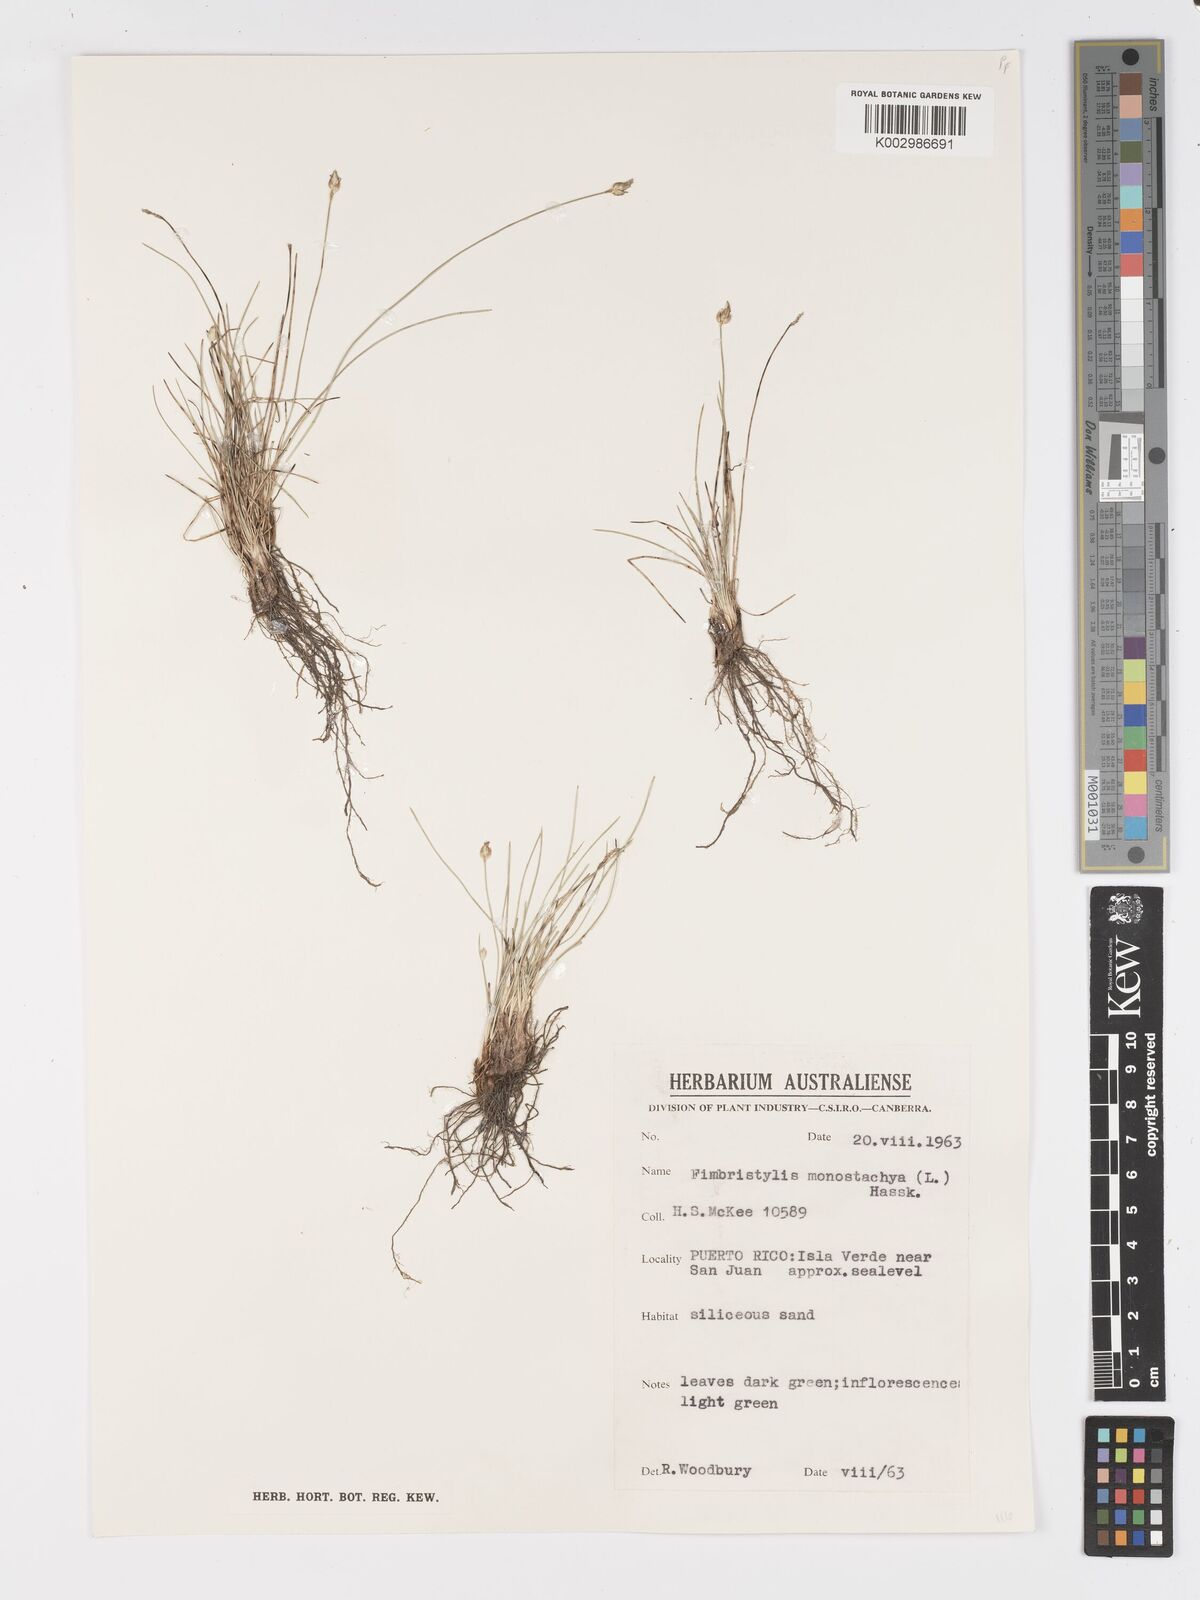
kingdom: Plantae
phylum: Tracheophyta
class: Liliopsida
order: Poales
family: Cyperaceae
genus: Abildgaardia
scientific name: Abildgaardia ovata
